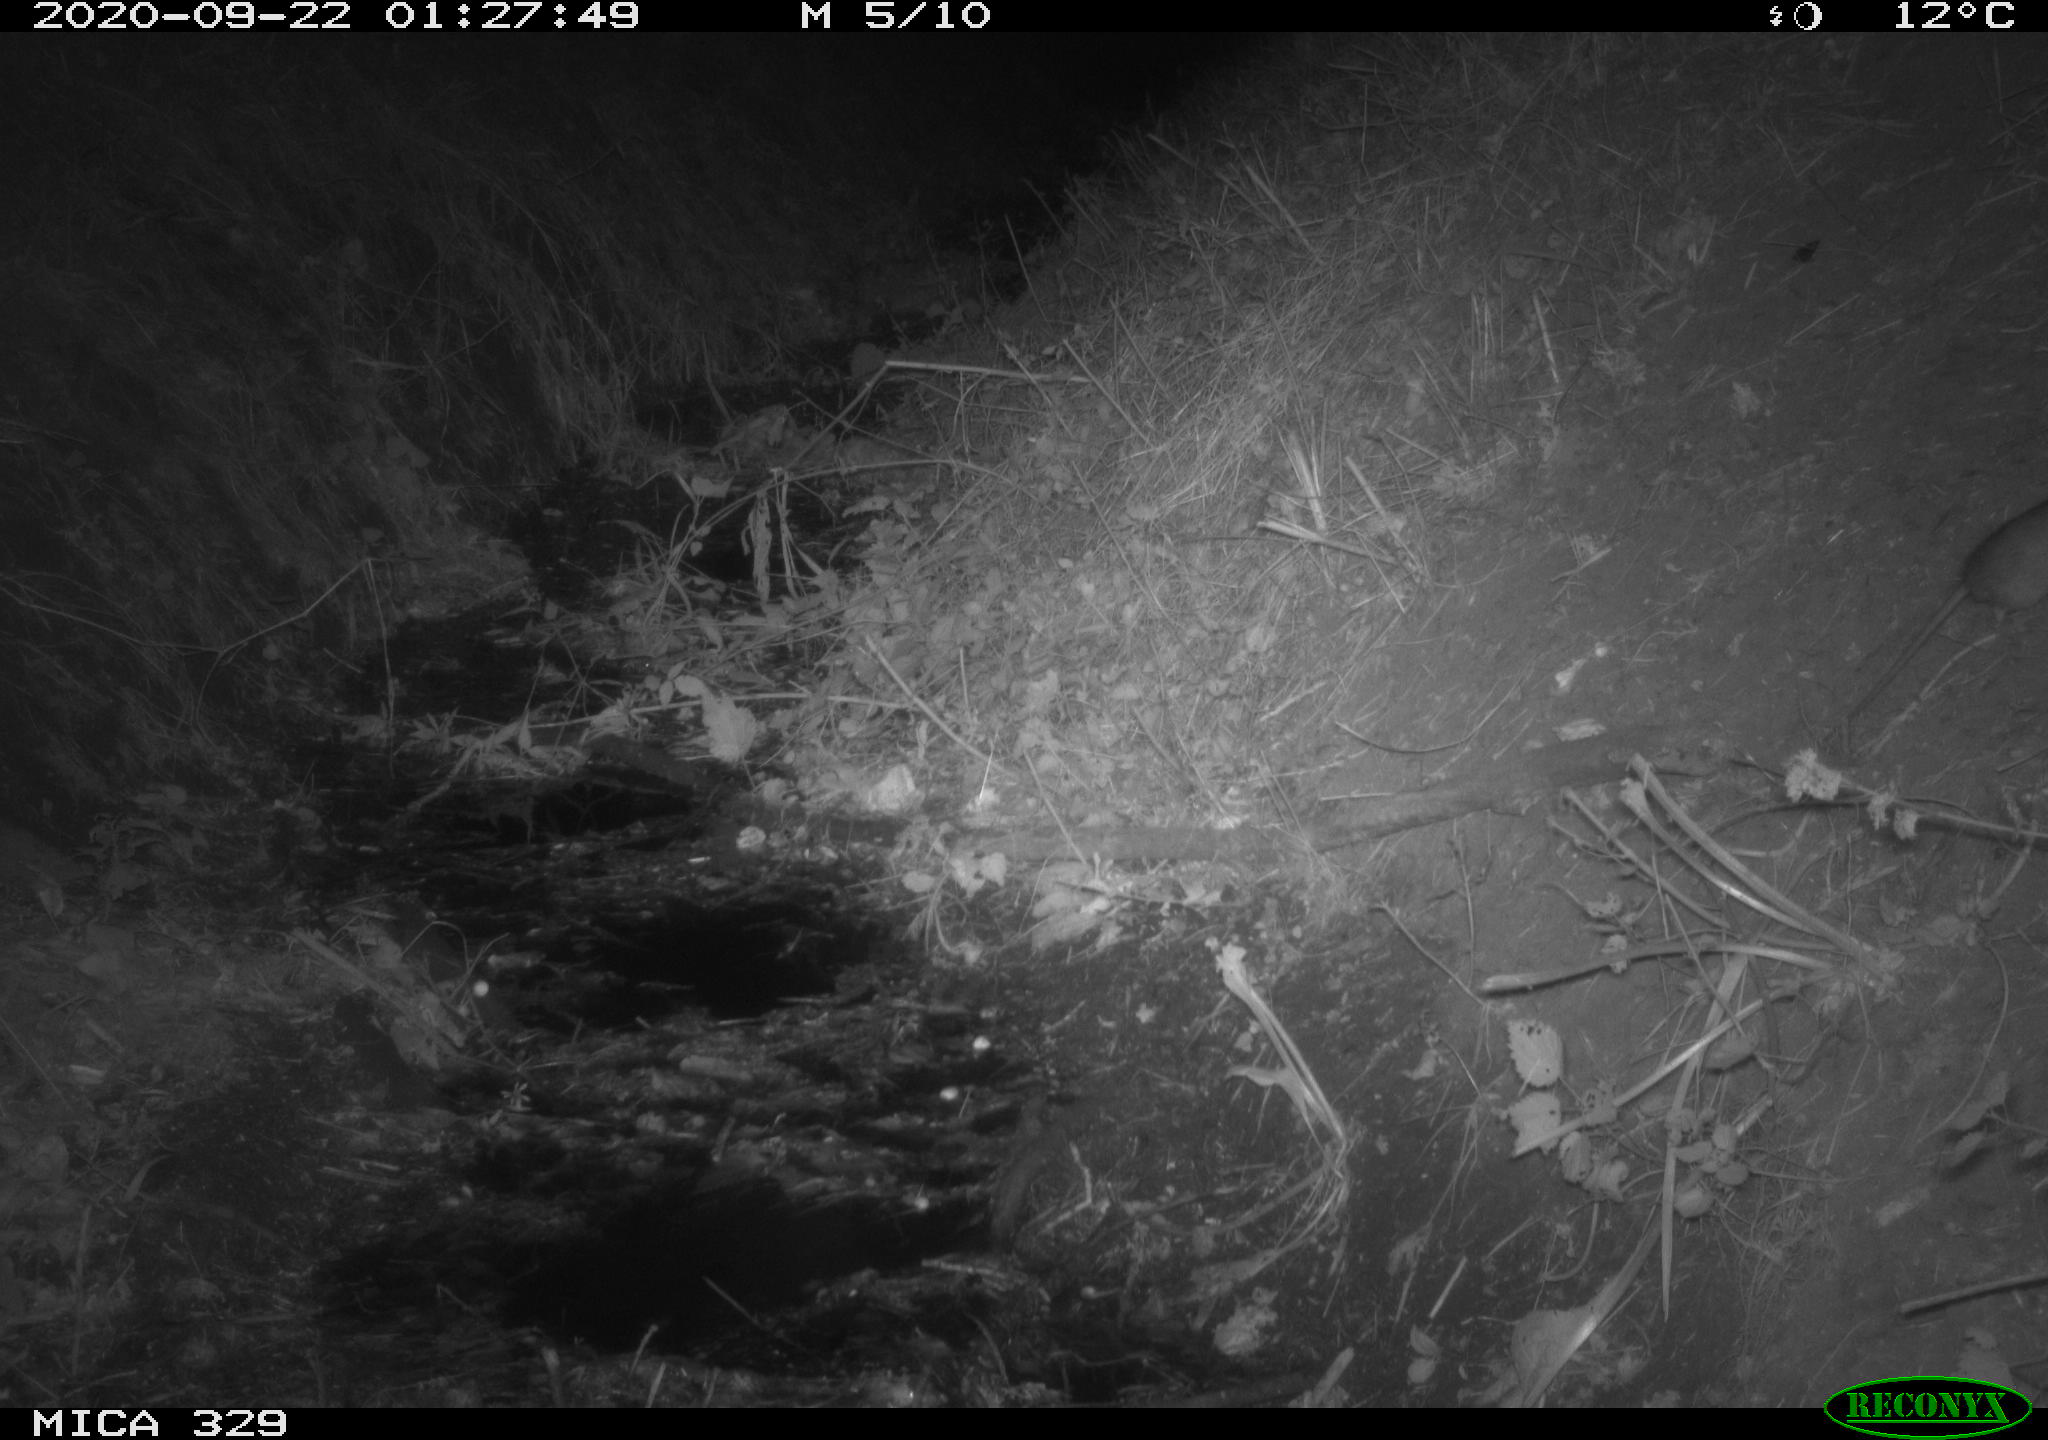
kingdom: Animalia
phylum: Chordata
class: Mammalia
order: Rodentia
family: Muridae
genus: Rattus
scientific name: Rattus norvegicus
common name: Brown rat
